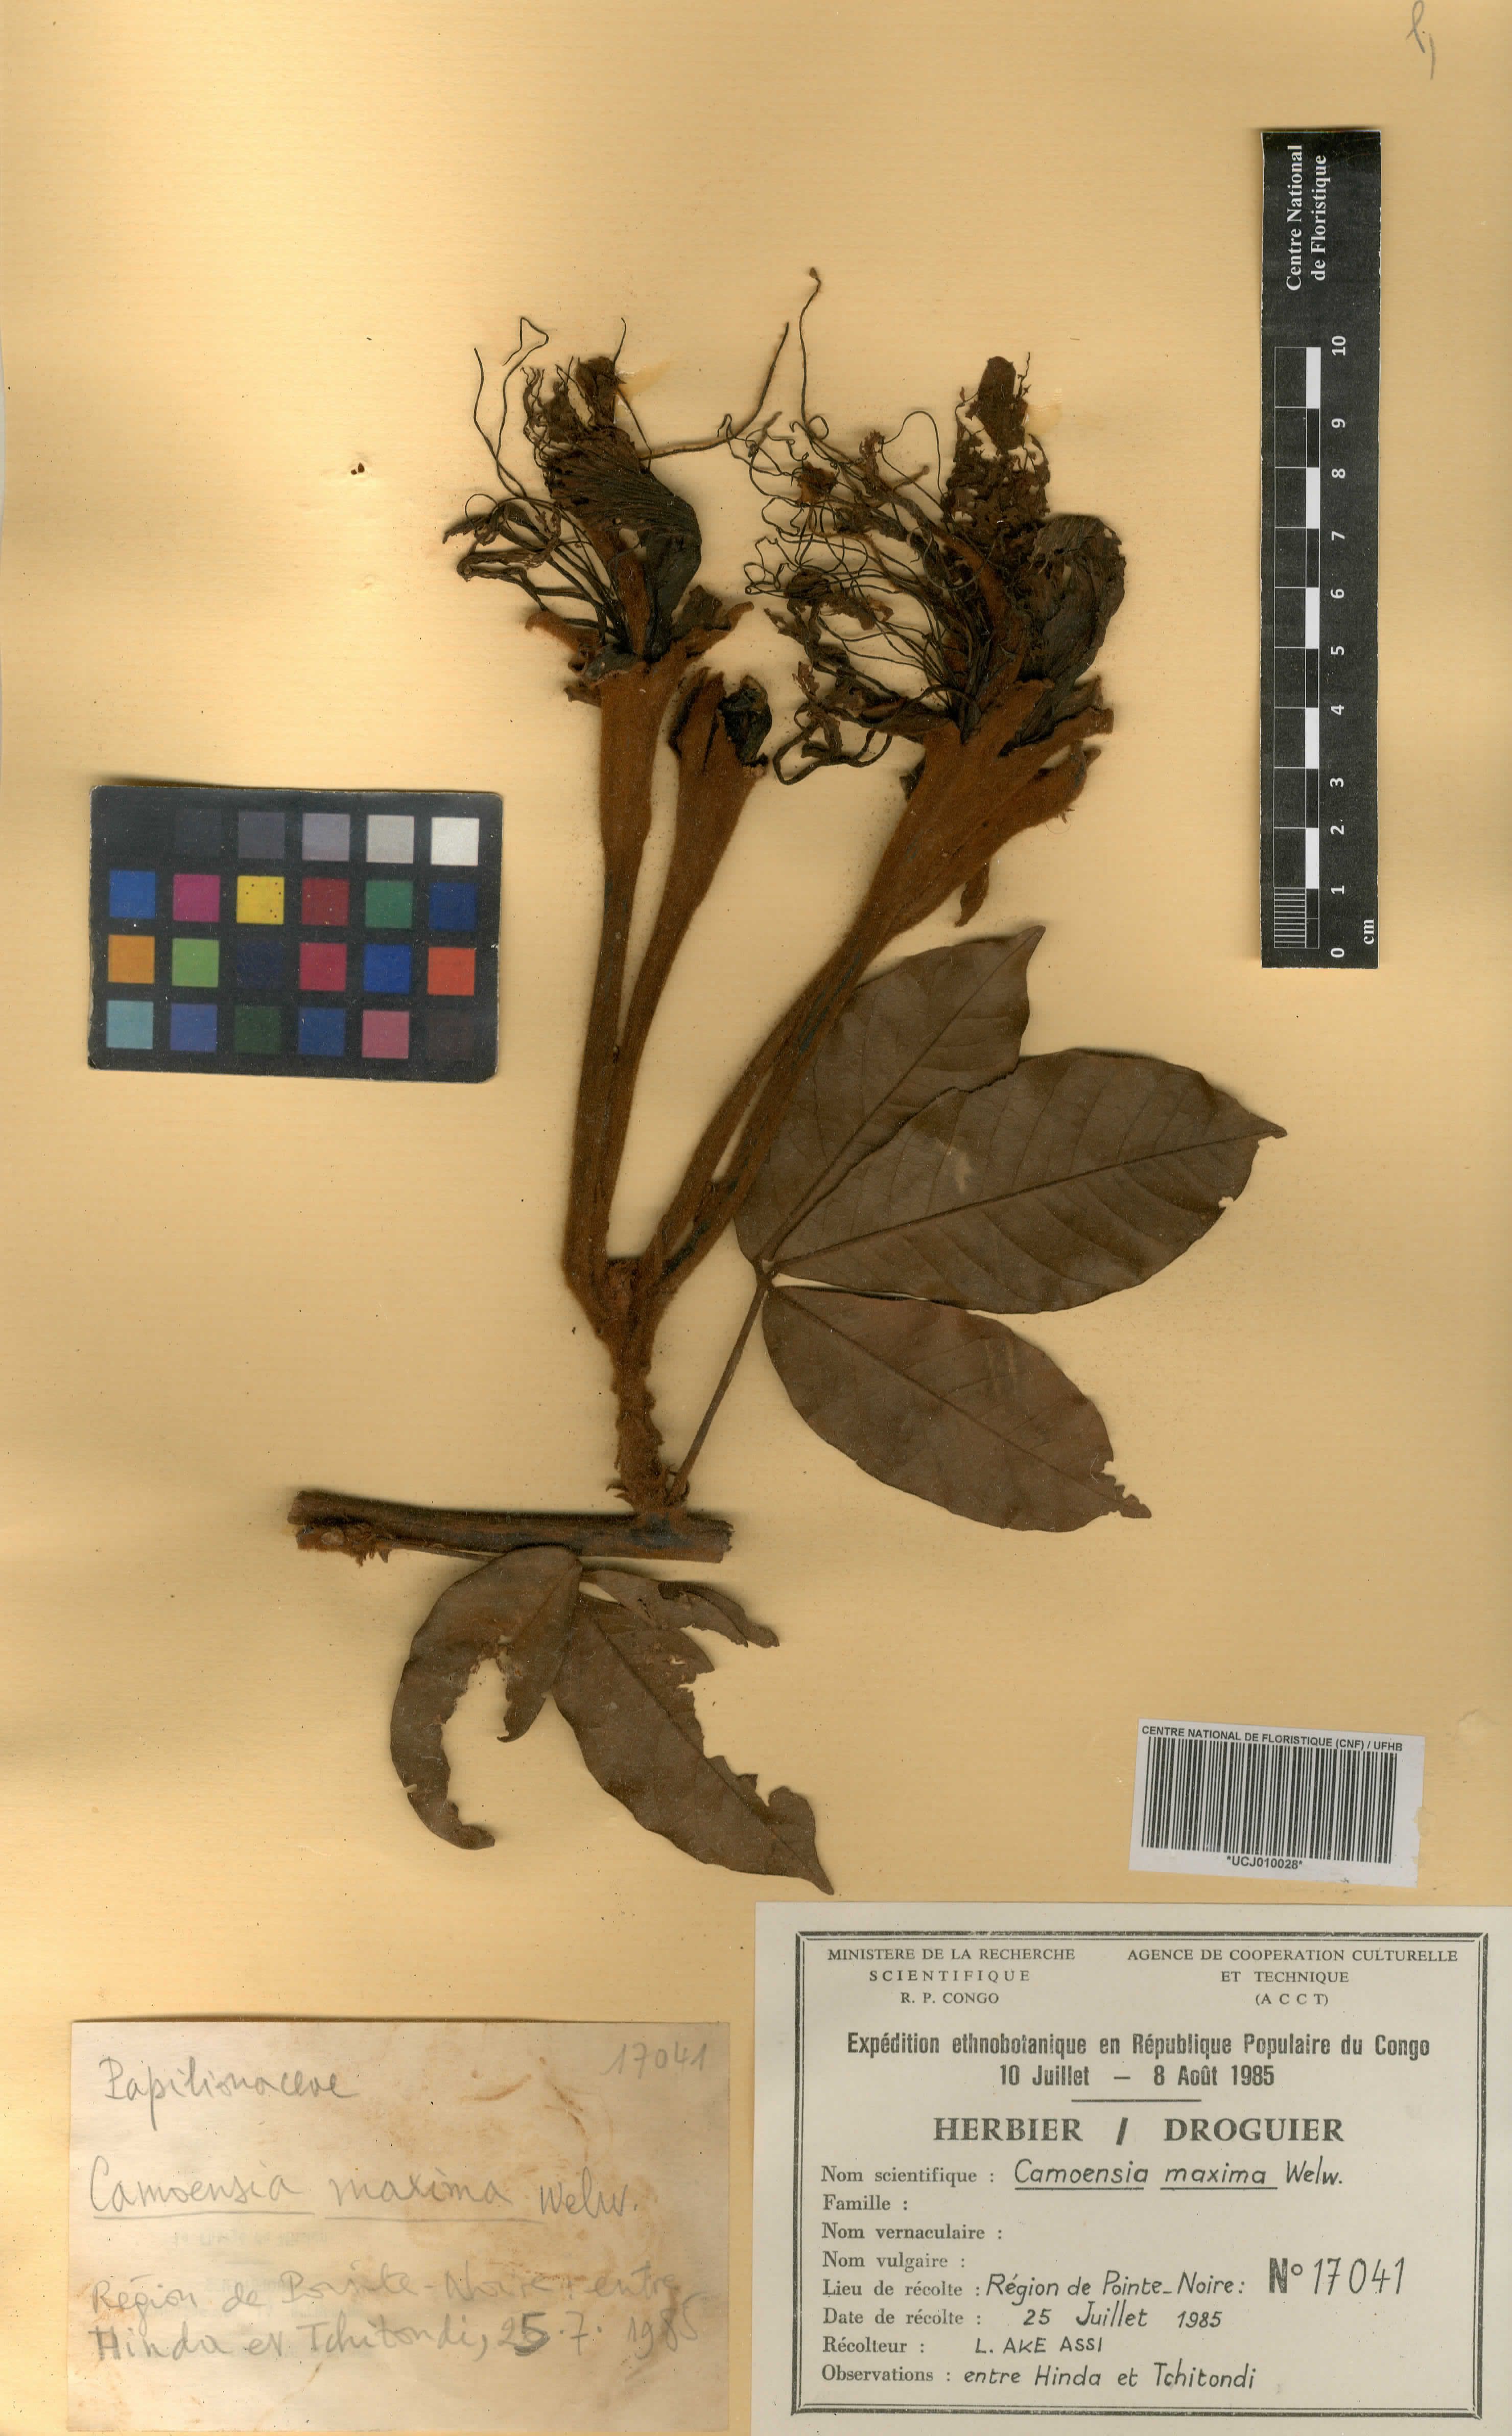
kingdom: Plantae
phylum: Tracheophyta
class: Magnoliopsida
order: Fabales
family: Fabaceae
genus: Camoensia
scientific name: Camoensia scandens
